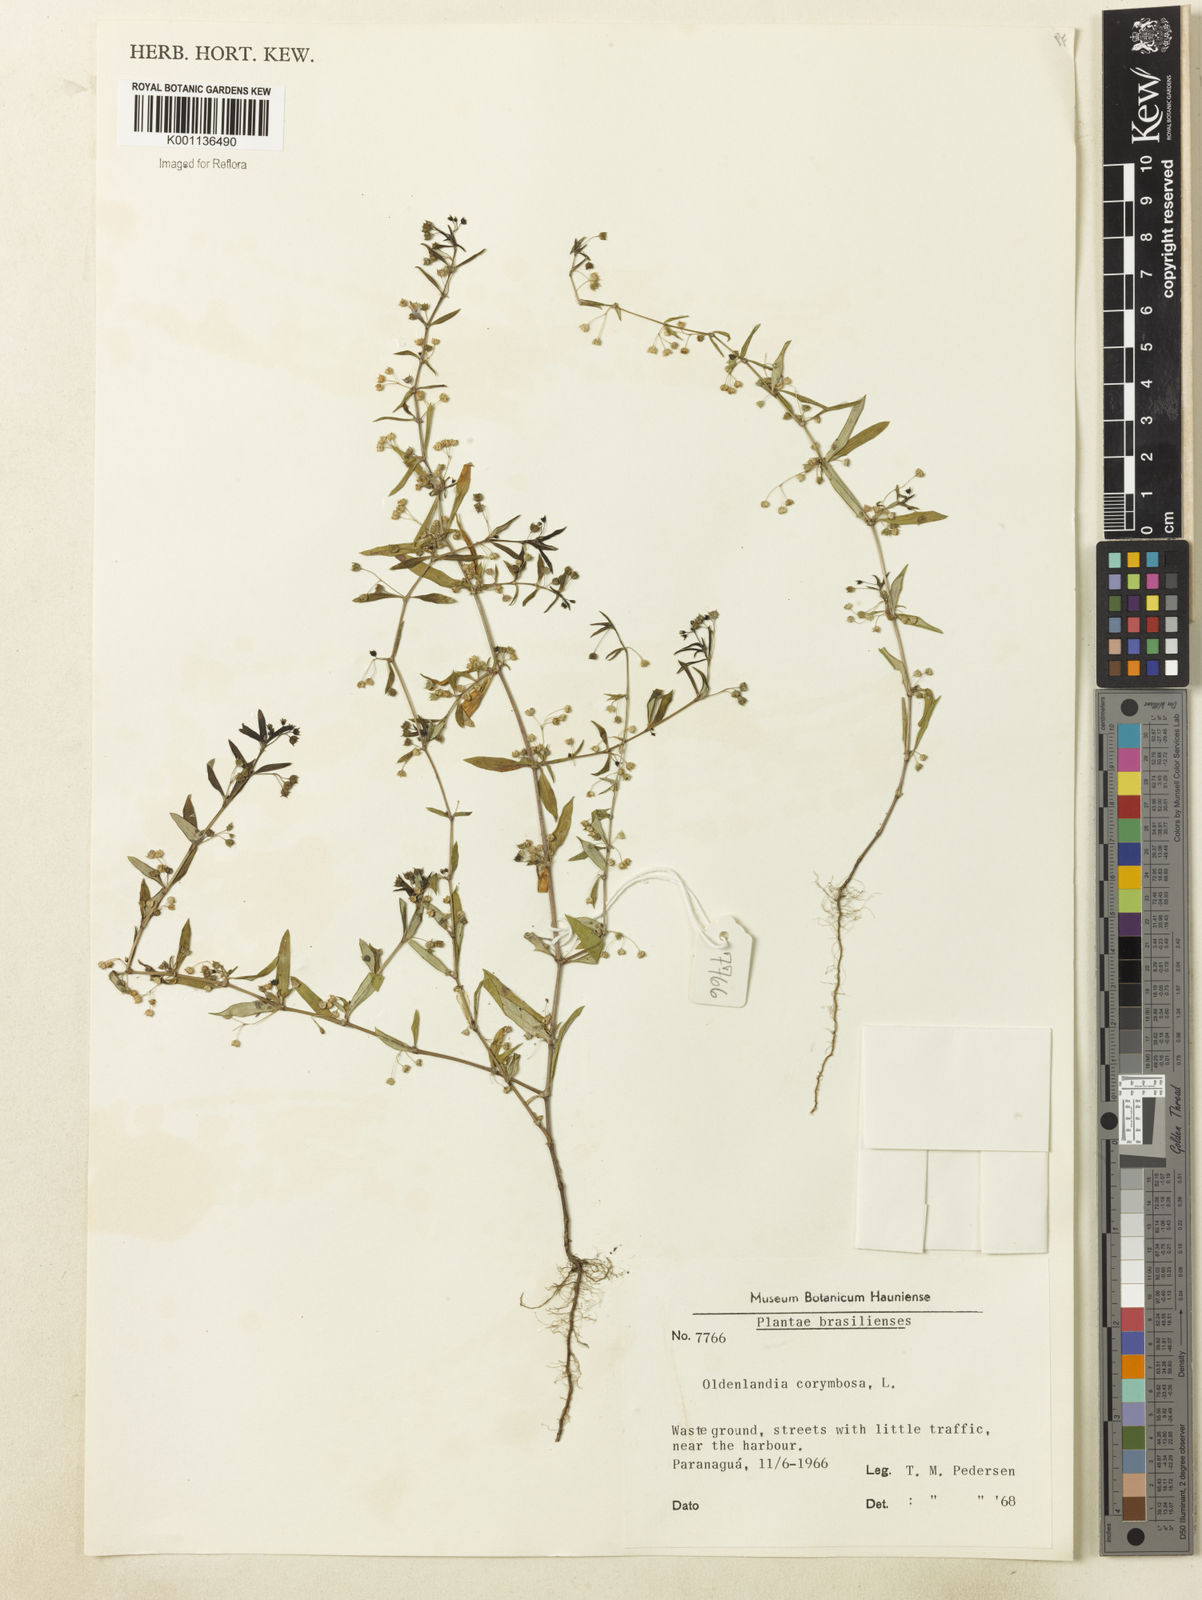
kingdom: Plantae
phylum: Tracheophyta
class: Magnoliopsida
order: Gentianales
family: Rubiaceae
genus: Oldenlandia
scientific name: Oldenlandia corymbosa
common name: Flat-top mille graines
